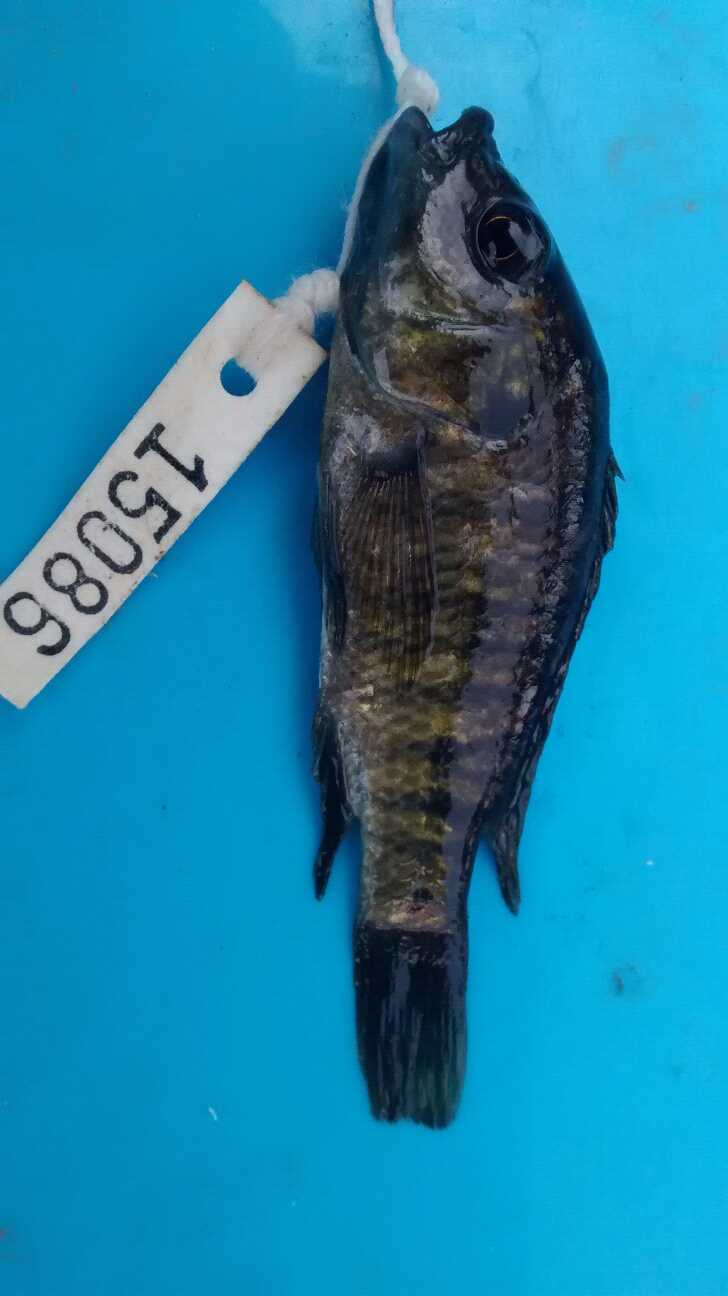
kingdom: Animalia
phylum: Chordata
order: Perciformes
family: Cichlidae
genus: Oreochromis
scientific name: Oreochromis spilurus
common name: Sabaki tilapia
